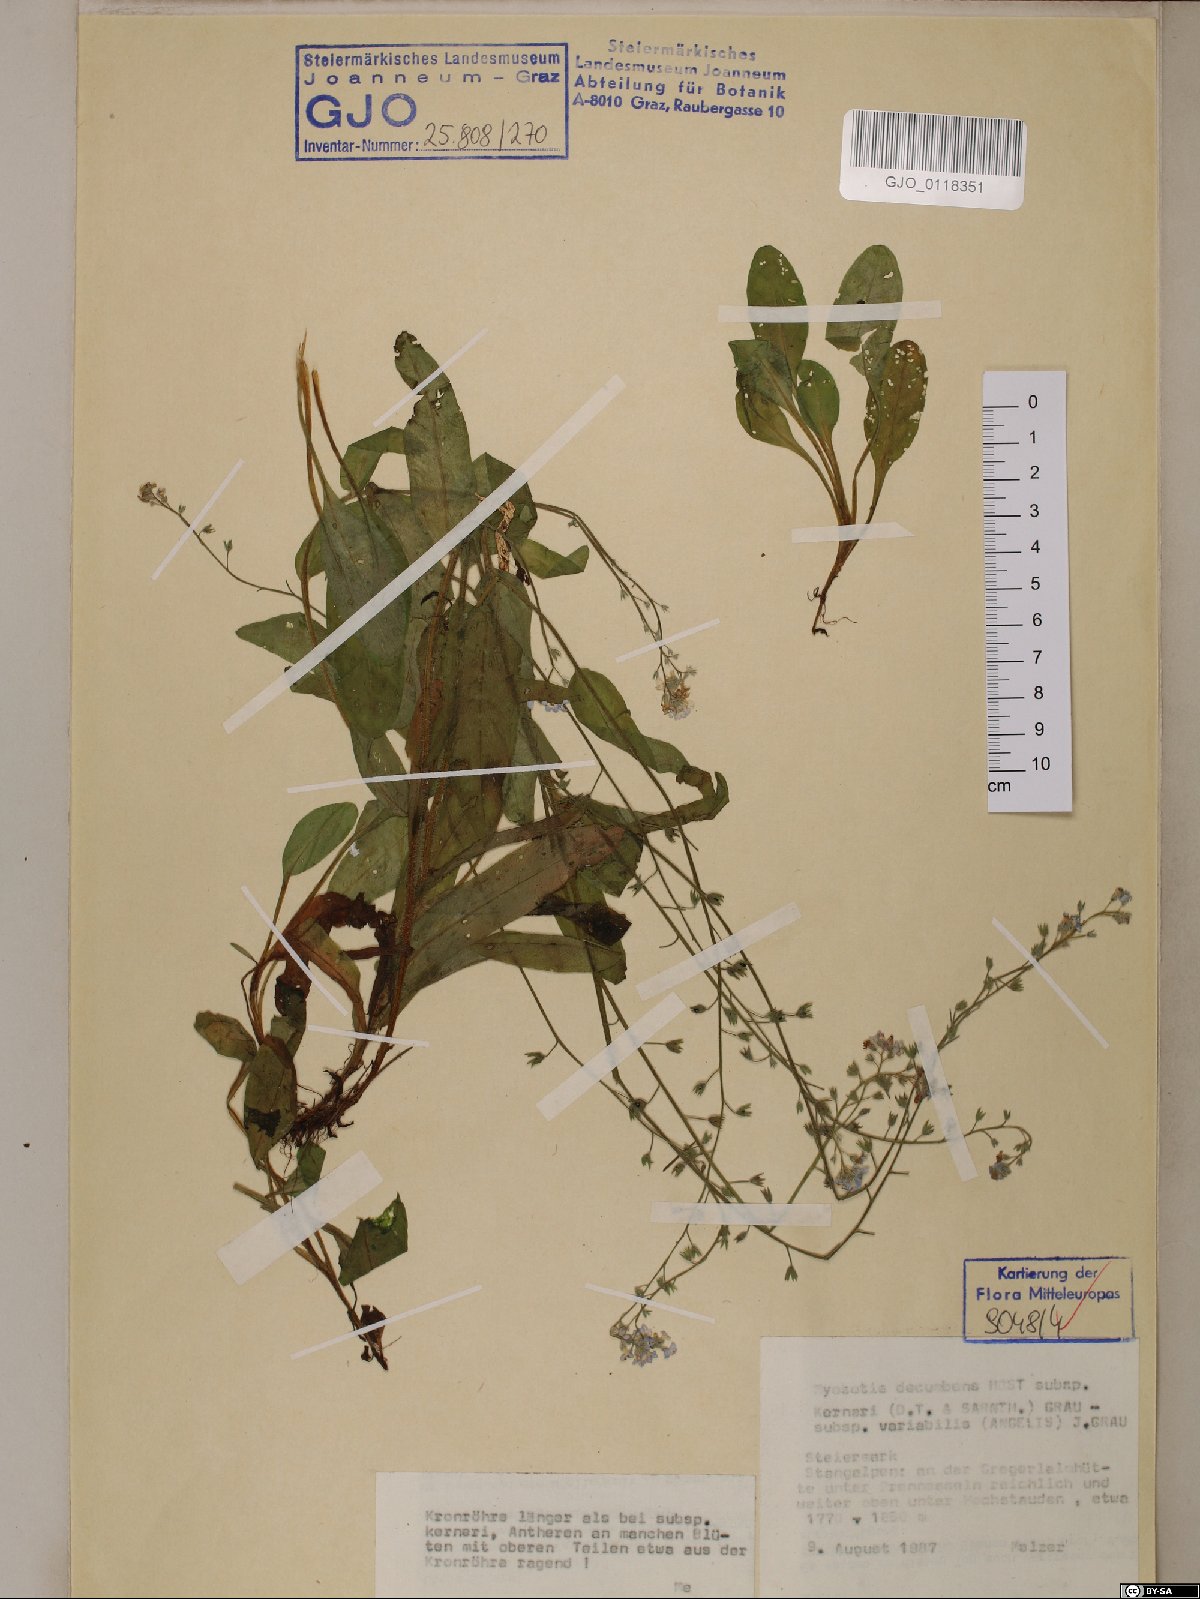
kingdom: Plantae
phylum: Tracheophyta
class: Magnoliopsida
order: Boraginales
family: Boraginaceae
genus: Myosotis
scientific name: Myosotis decumbens
